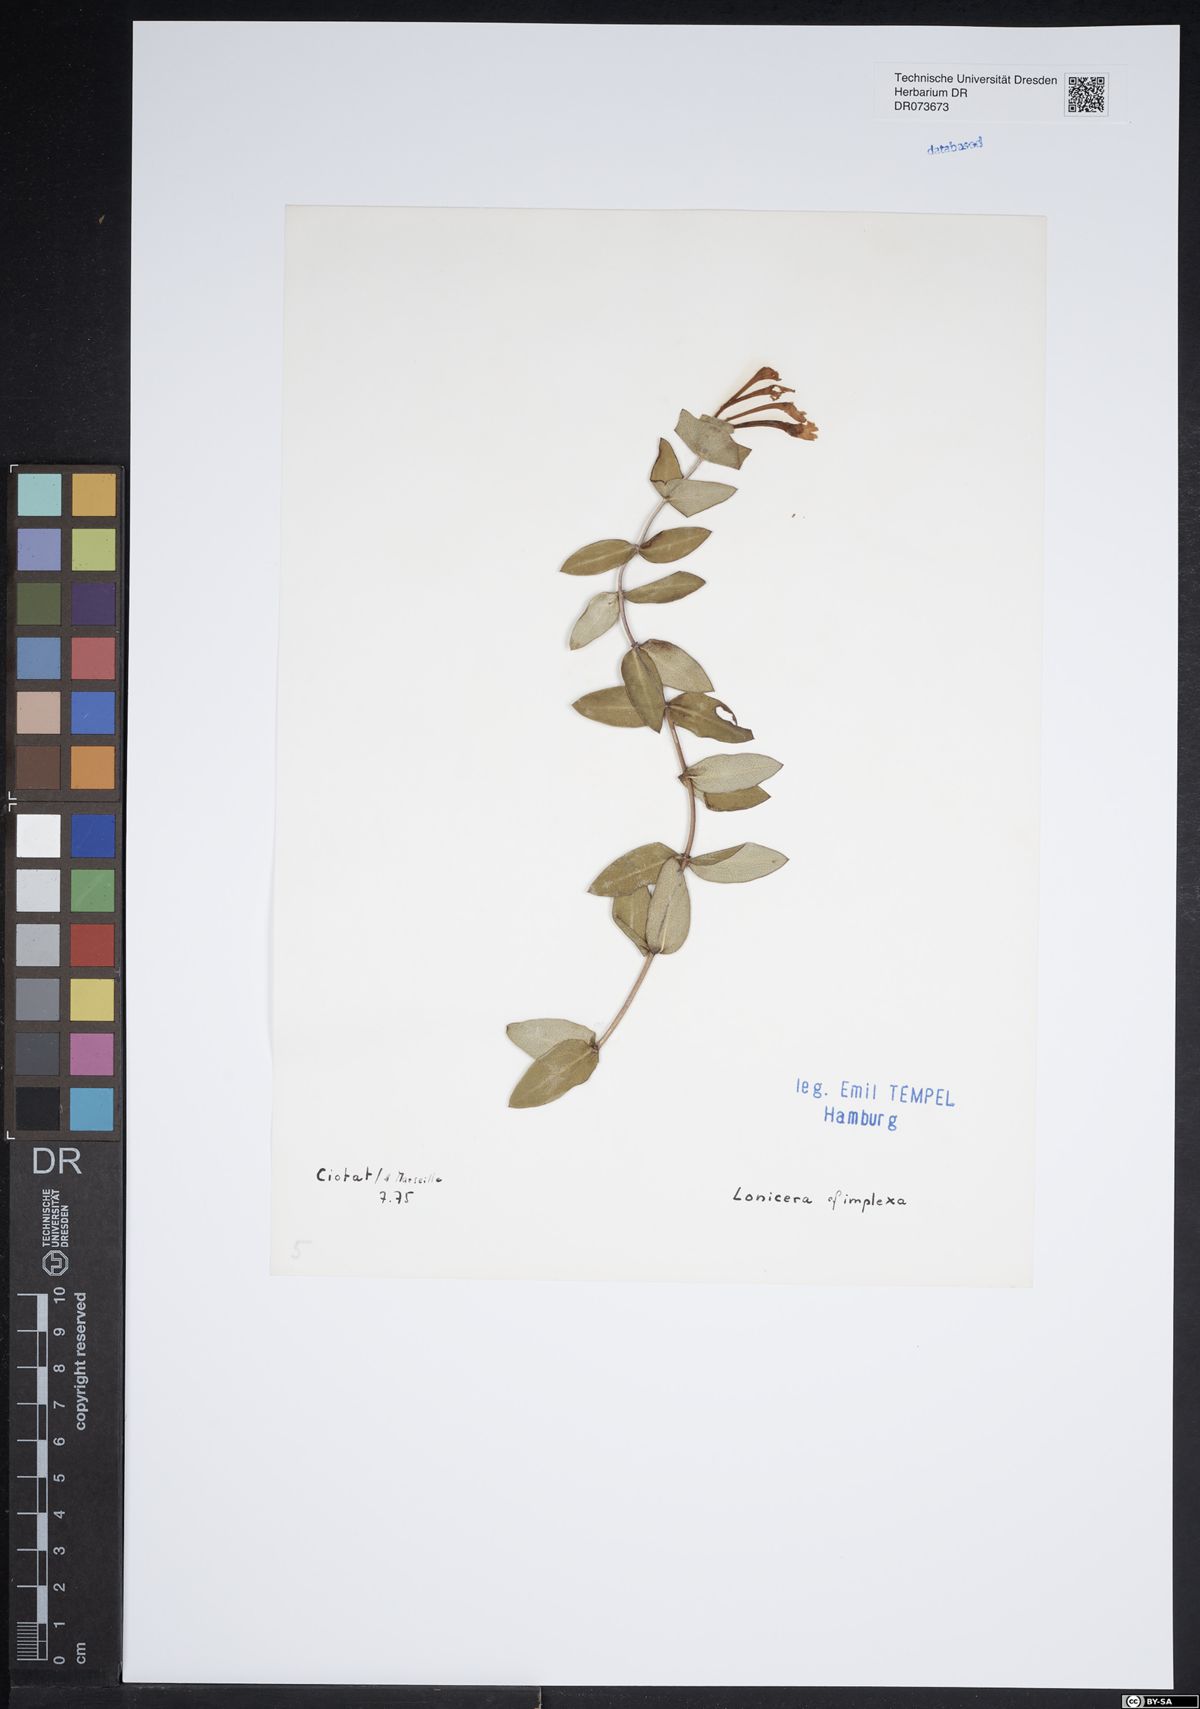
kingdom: Plantae
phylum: Tracheophyta
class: Magnoliopsida
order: Dipsacales
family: Caprifoliaceae
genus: Lonicera
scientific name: Lonicera implexa
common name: Minorca honeysuckle
